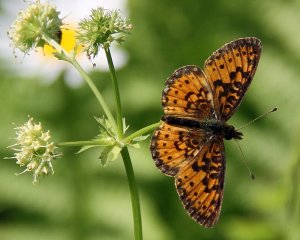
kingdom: Animalia
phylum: Arthropoda
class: Insecta
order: Lepidoptera
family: Nymphalidae
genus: Boloria
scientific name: Boloria selene
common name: Silver-bordered Fritillary
